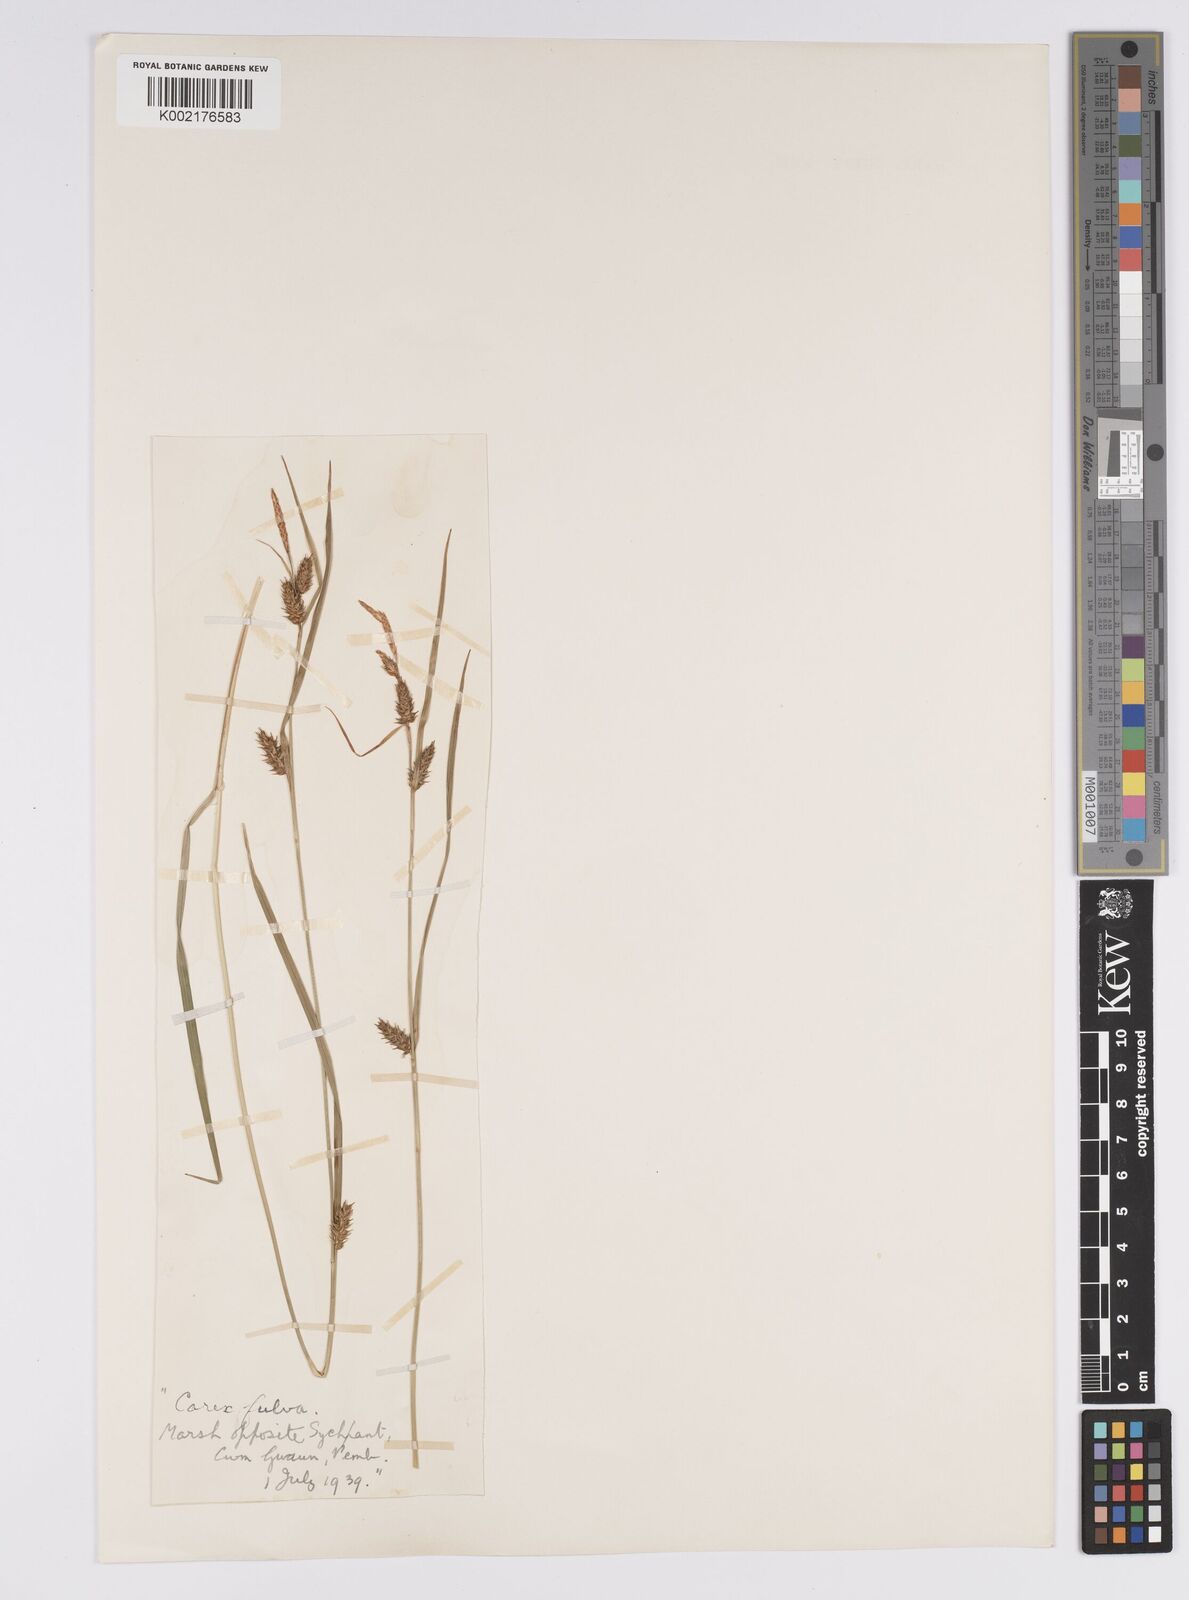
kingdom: Plantae
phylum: Tracheophyta
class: Liliopsida
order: Poales
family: Cyperaceae
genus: Carex
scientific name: Carex distans
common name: Distant sedge
